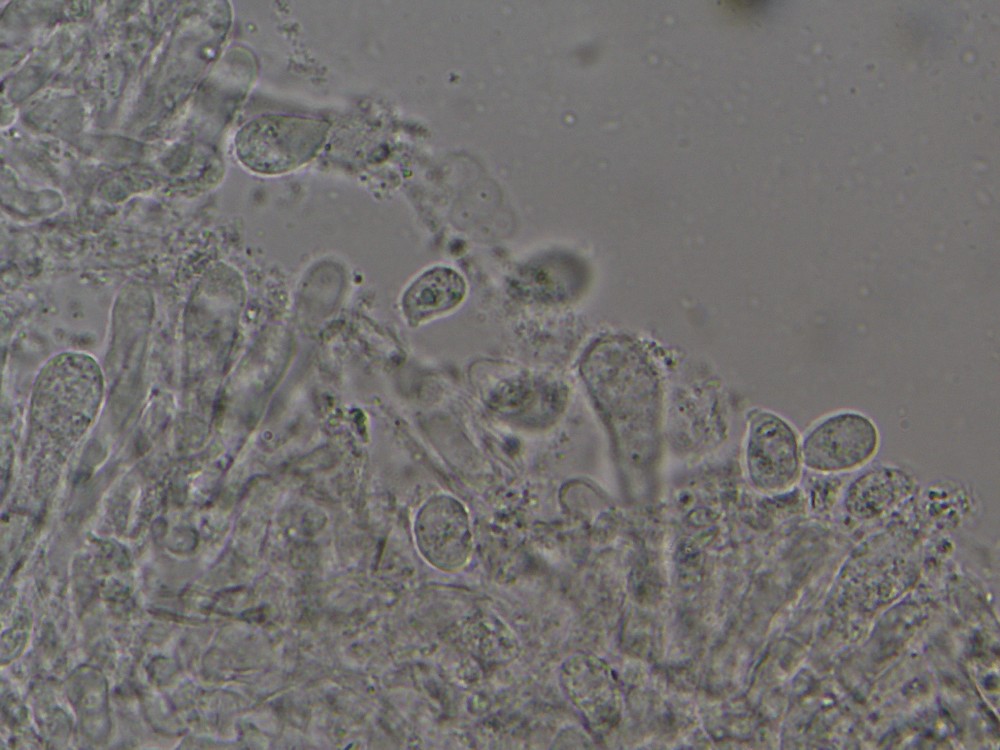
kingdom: Fungi
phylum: Basidiomycota
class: Agaricomycetes
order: Agaricales
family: Hygrophoraceae
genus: Arrhenia
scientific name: Arrhenia chlorocyanea
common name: blågrøn fontænehat
